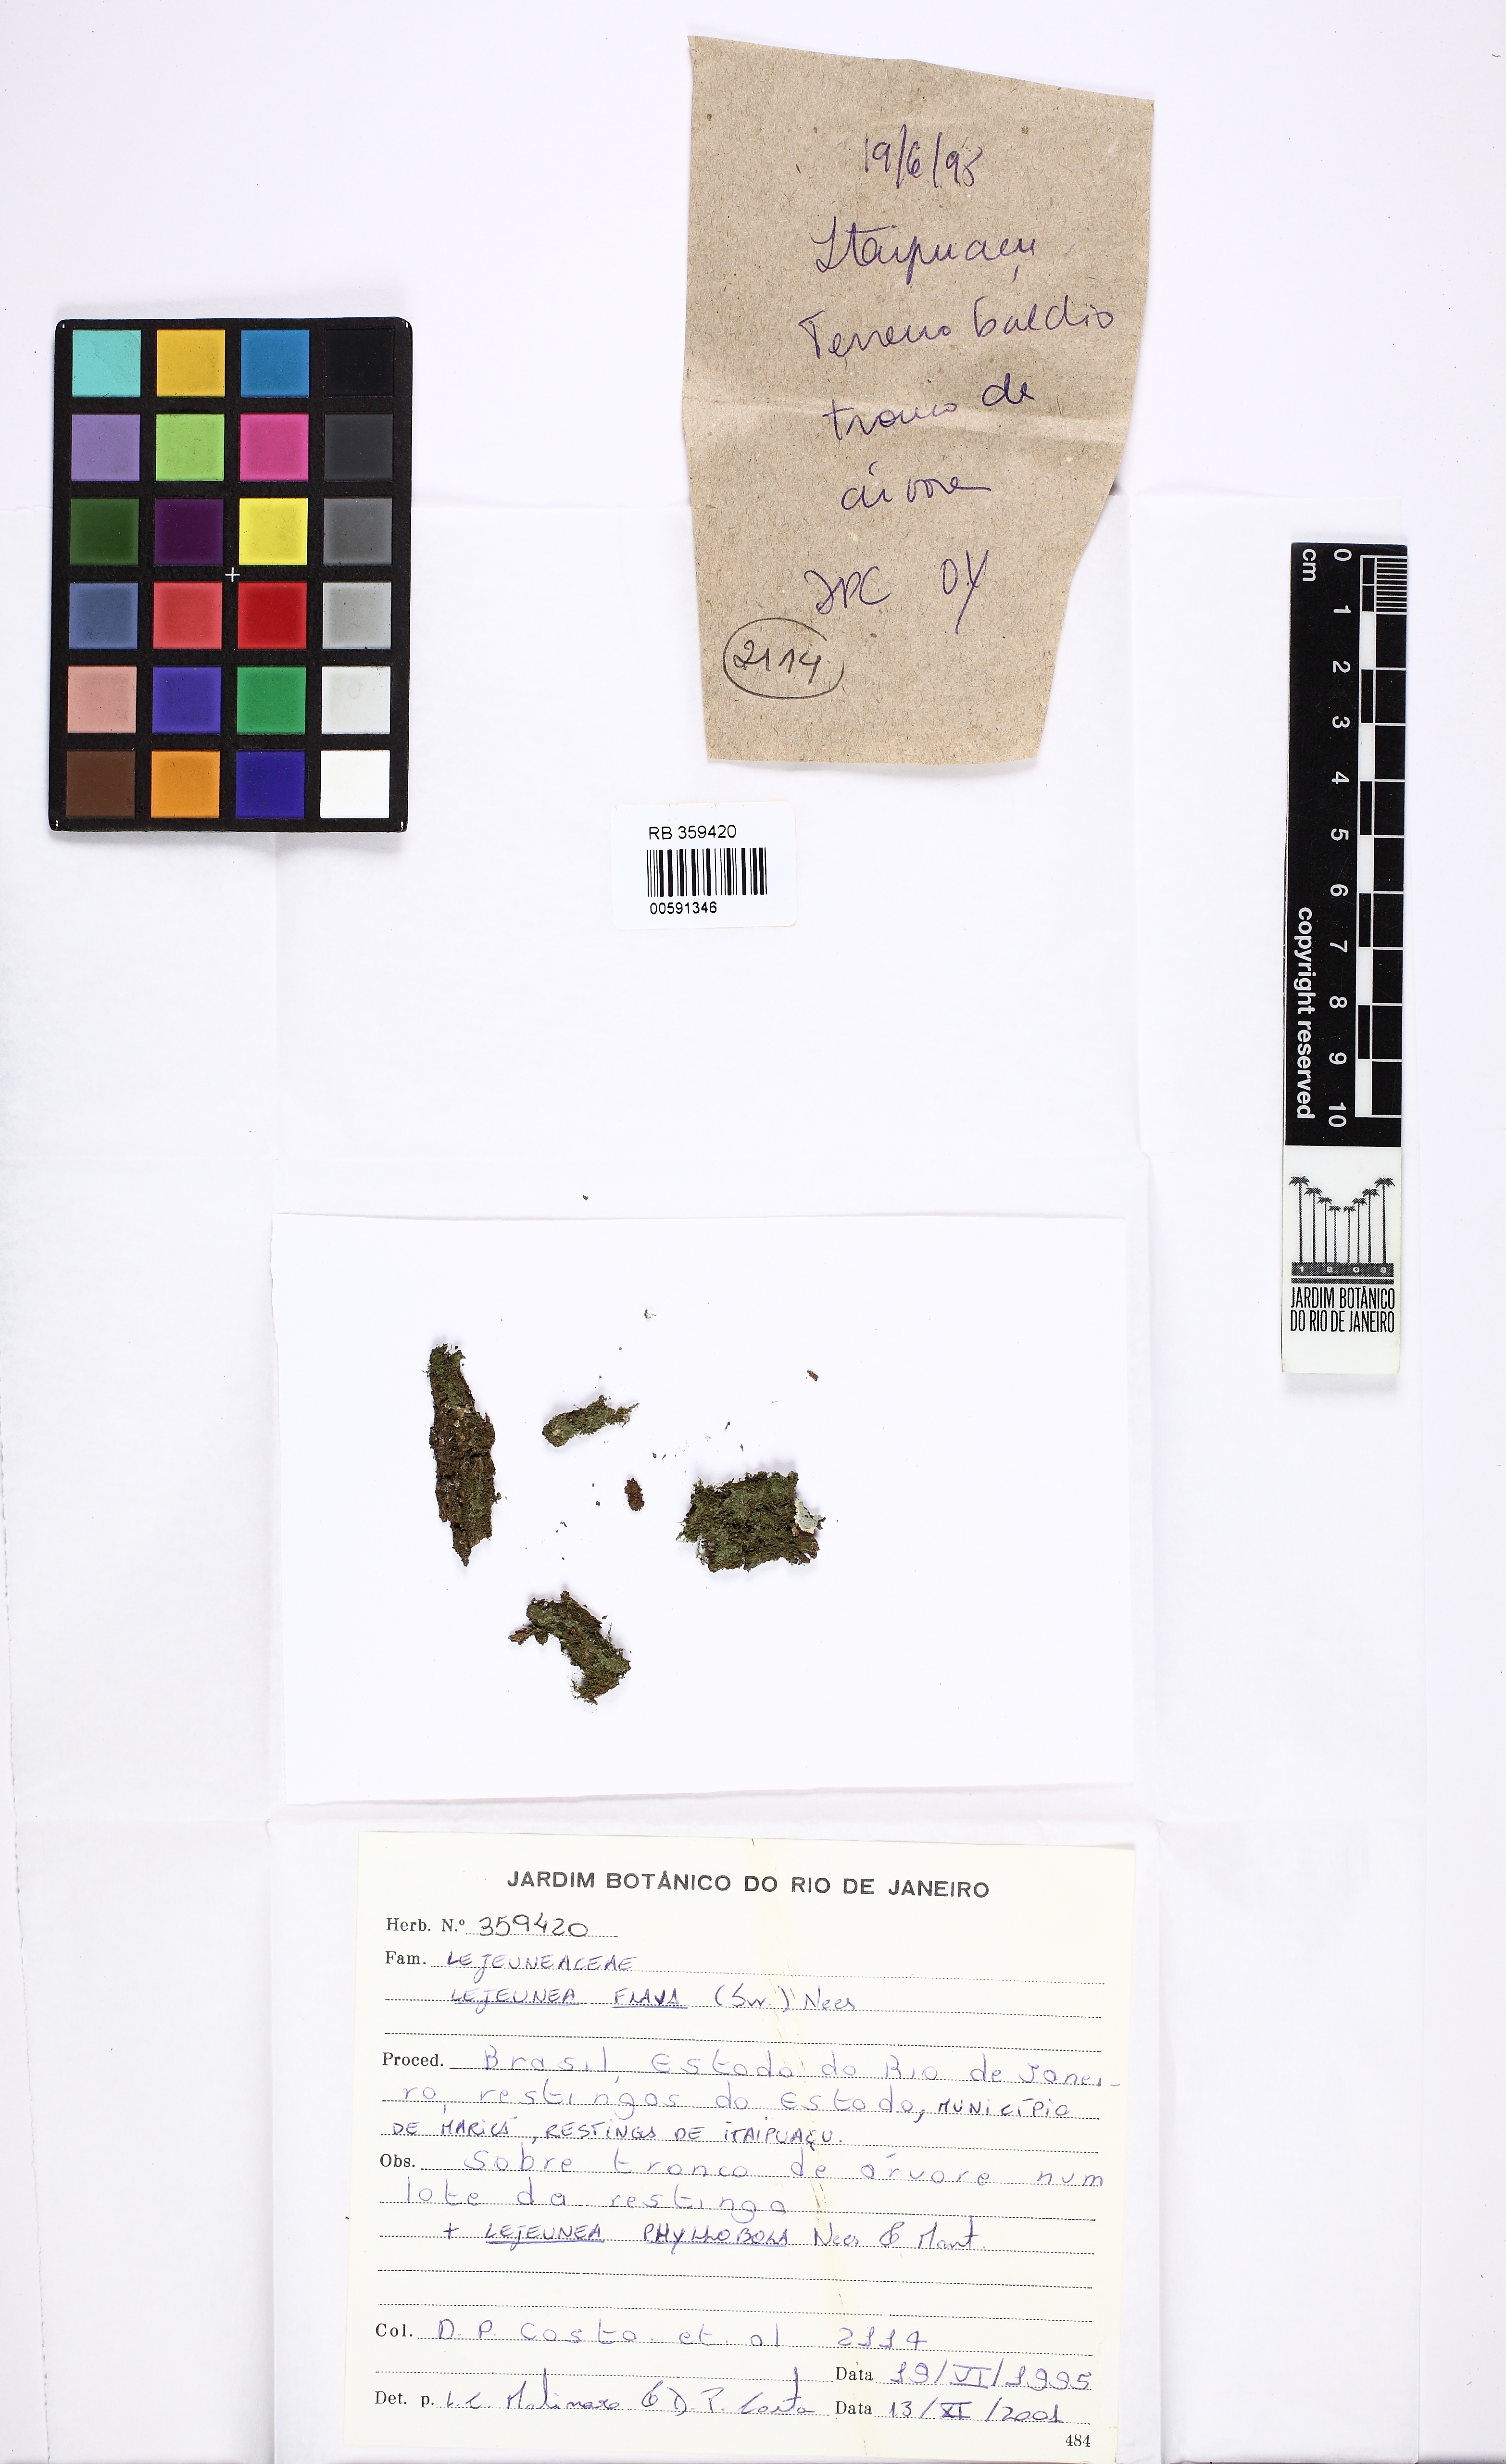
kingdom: Plantae
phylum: Marchantiophyta
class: Jungermanniopsida
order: Porellales
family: Lejeuneaceae
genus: Lejeunea
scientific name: Lejeunea flava
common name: Yellow pouncewort
